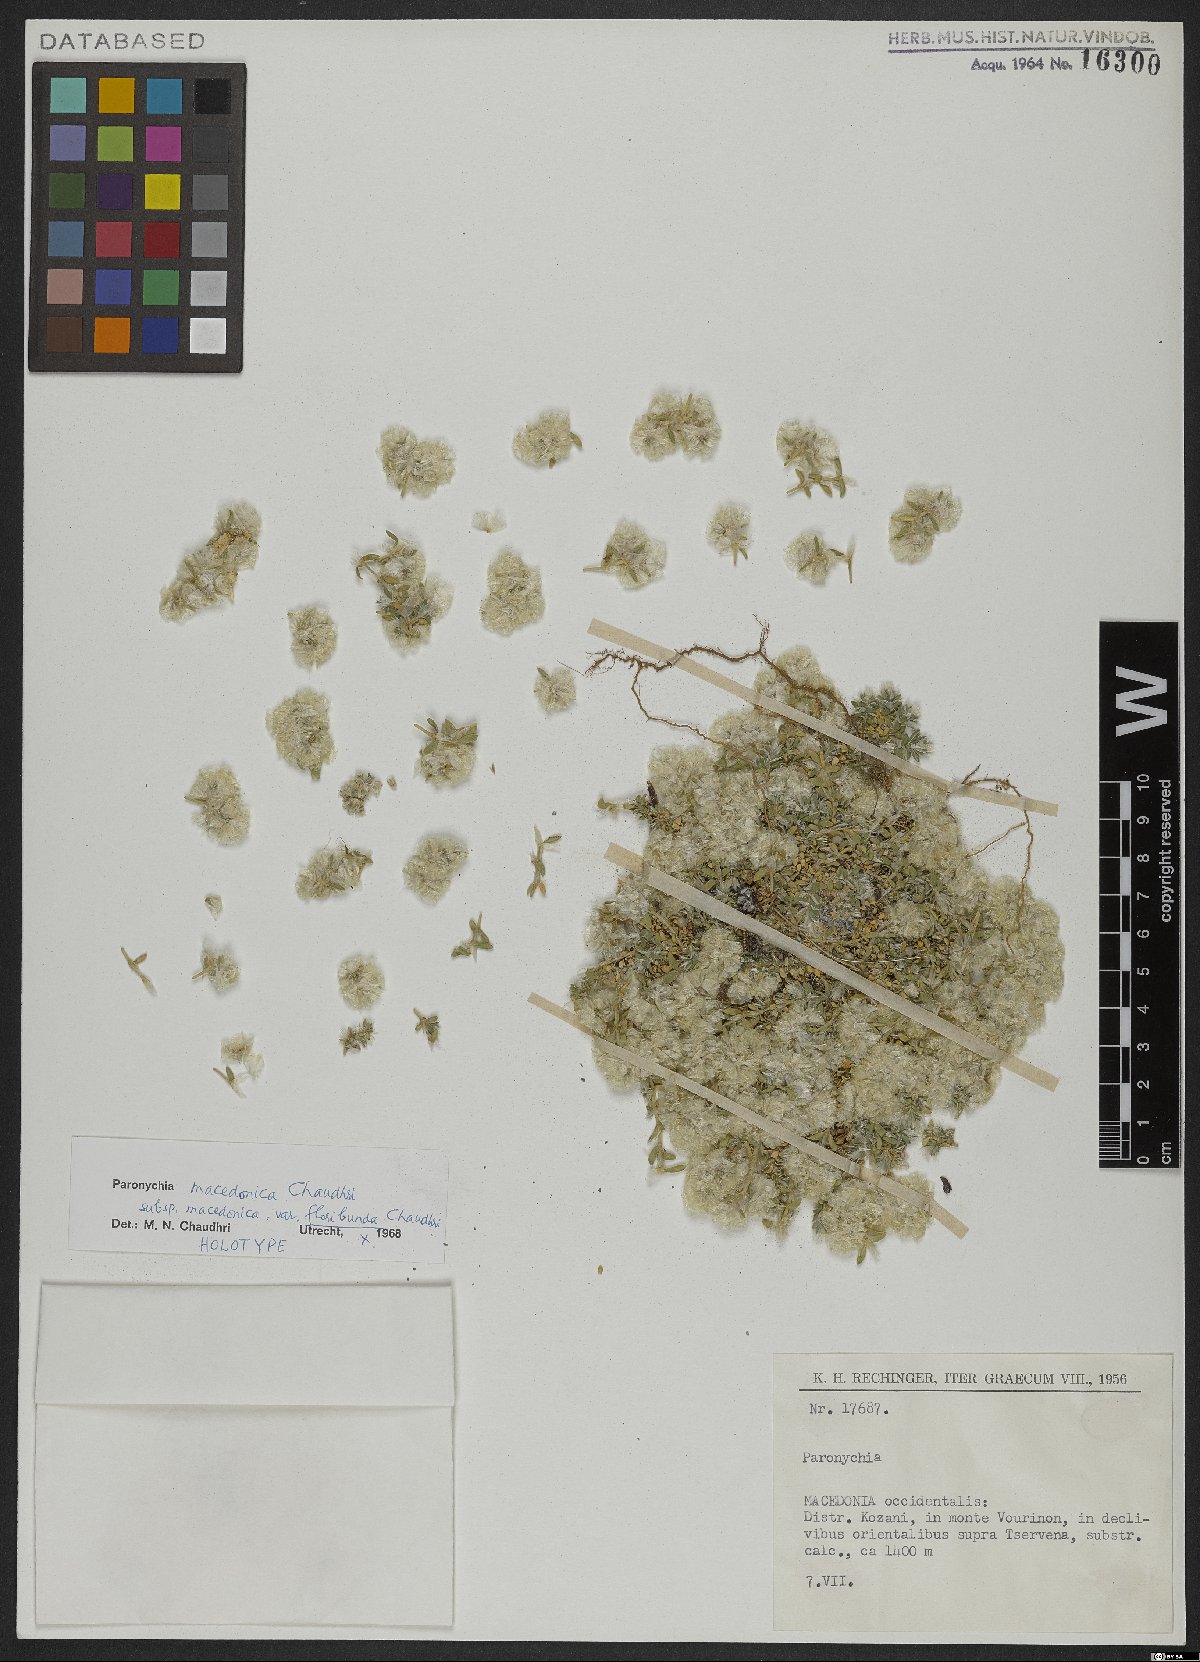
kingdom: Plantae
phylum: Tracheophyta
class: Magnoliopsida
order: Caryophyllales
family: Caryophyllaceae
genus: Paronychia
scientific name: Paronychia macedonica
